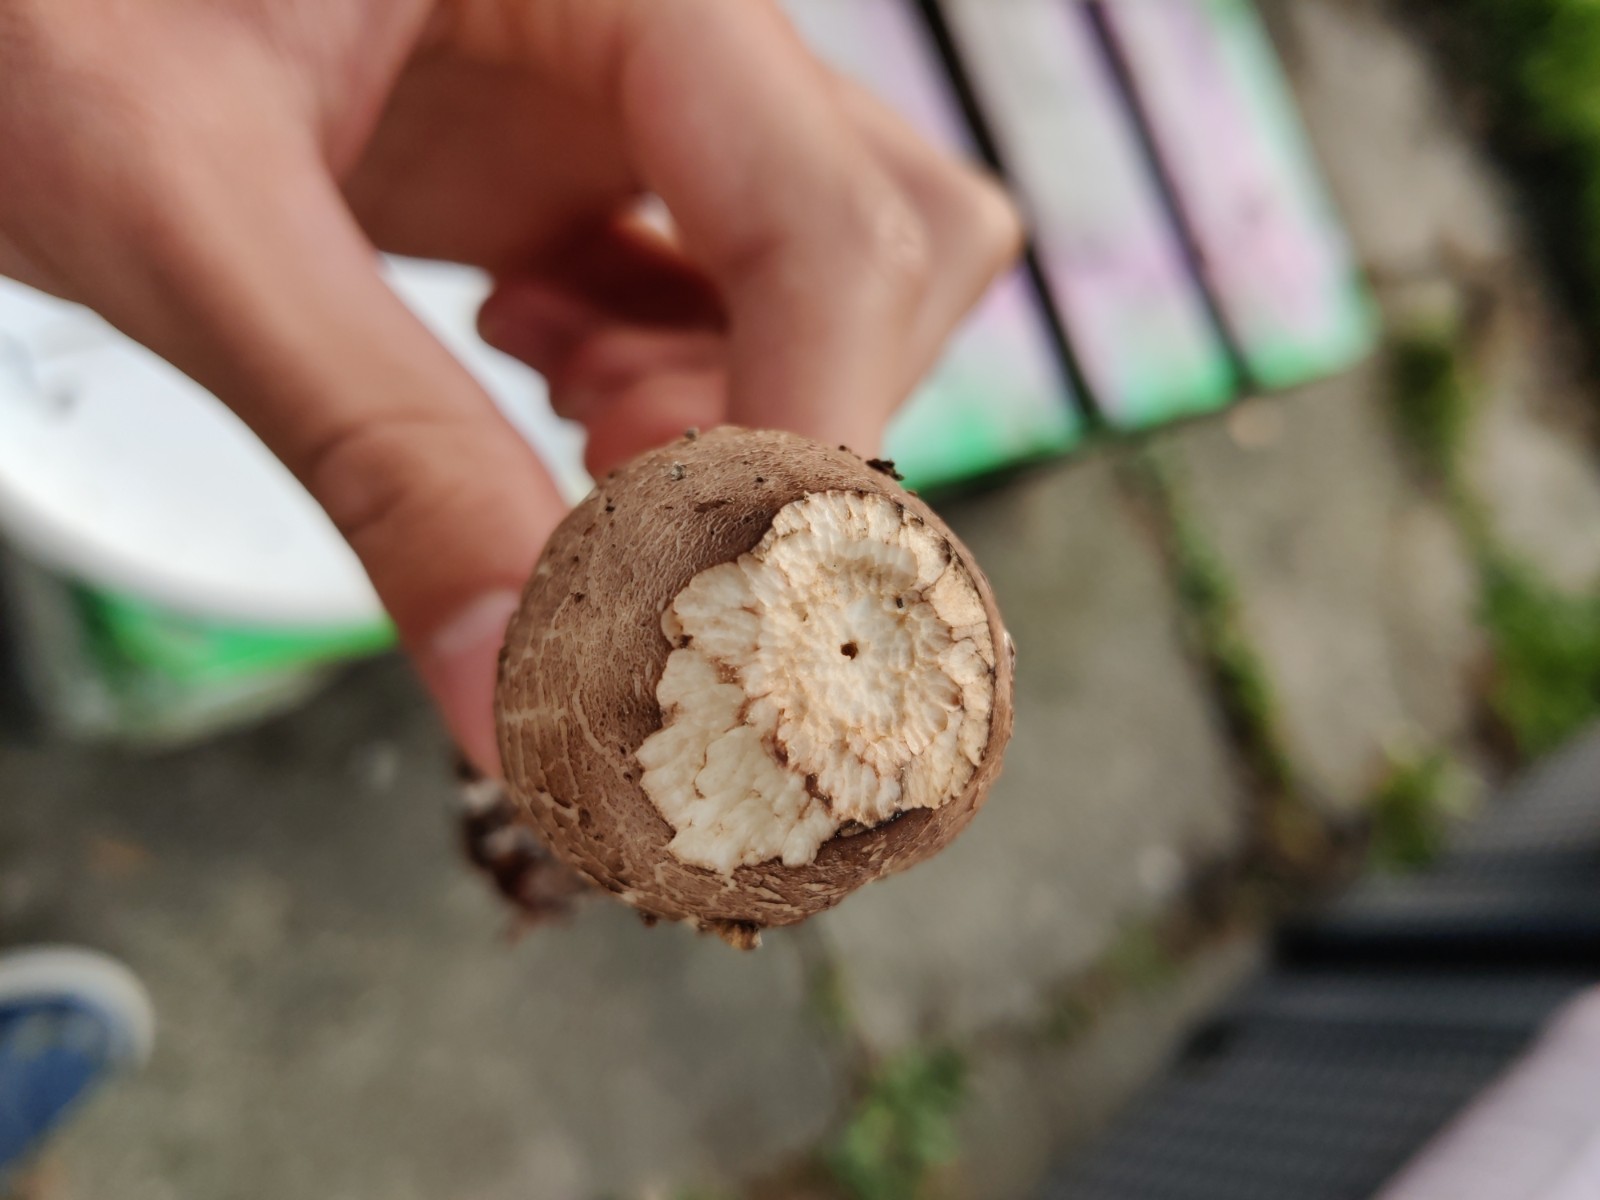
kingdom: Fungi
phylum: Basidiomycota
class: Agaricomycetes
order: Agaricales
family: Agaricaceae
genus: Chlorophyllum
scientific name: Chlorophyllum rhacodes
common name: ægte rabarberhat
